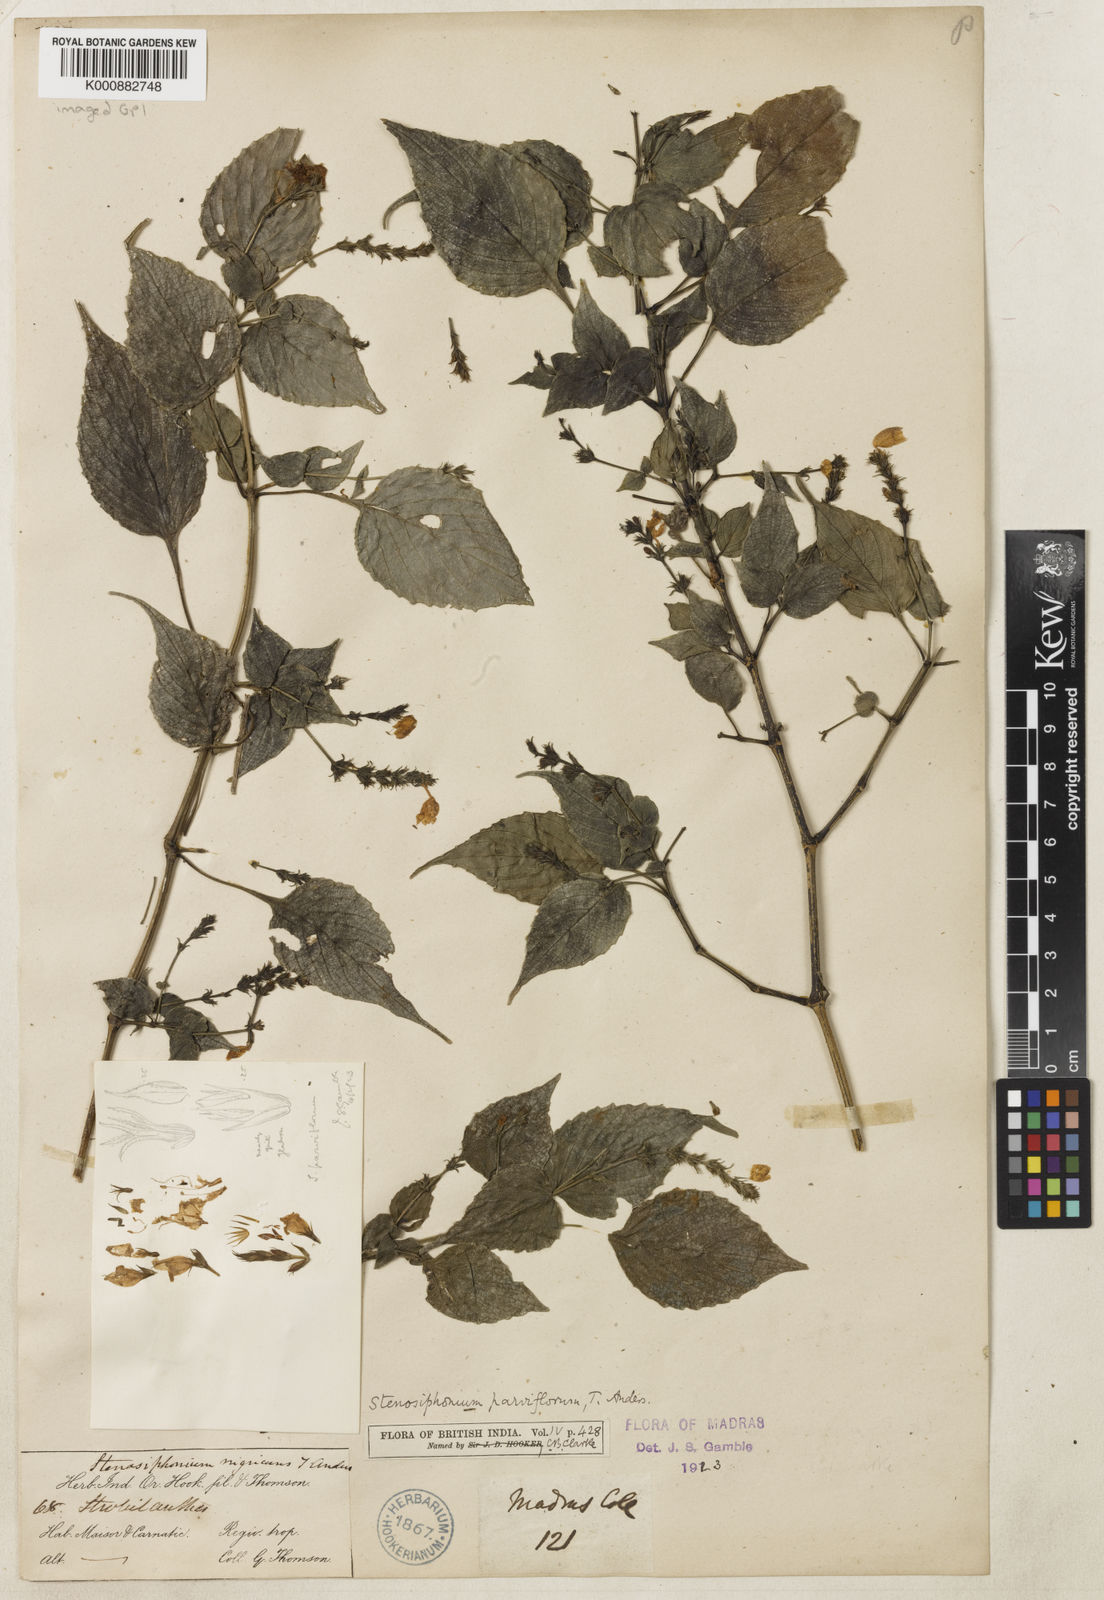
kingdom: Plantae
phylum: Tracheophyta
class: Magnoliopsida
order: Lamiales
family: Acanthaceae
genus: Strobilanthes
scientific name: Strobilanthes carinei
